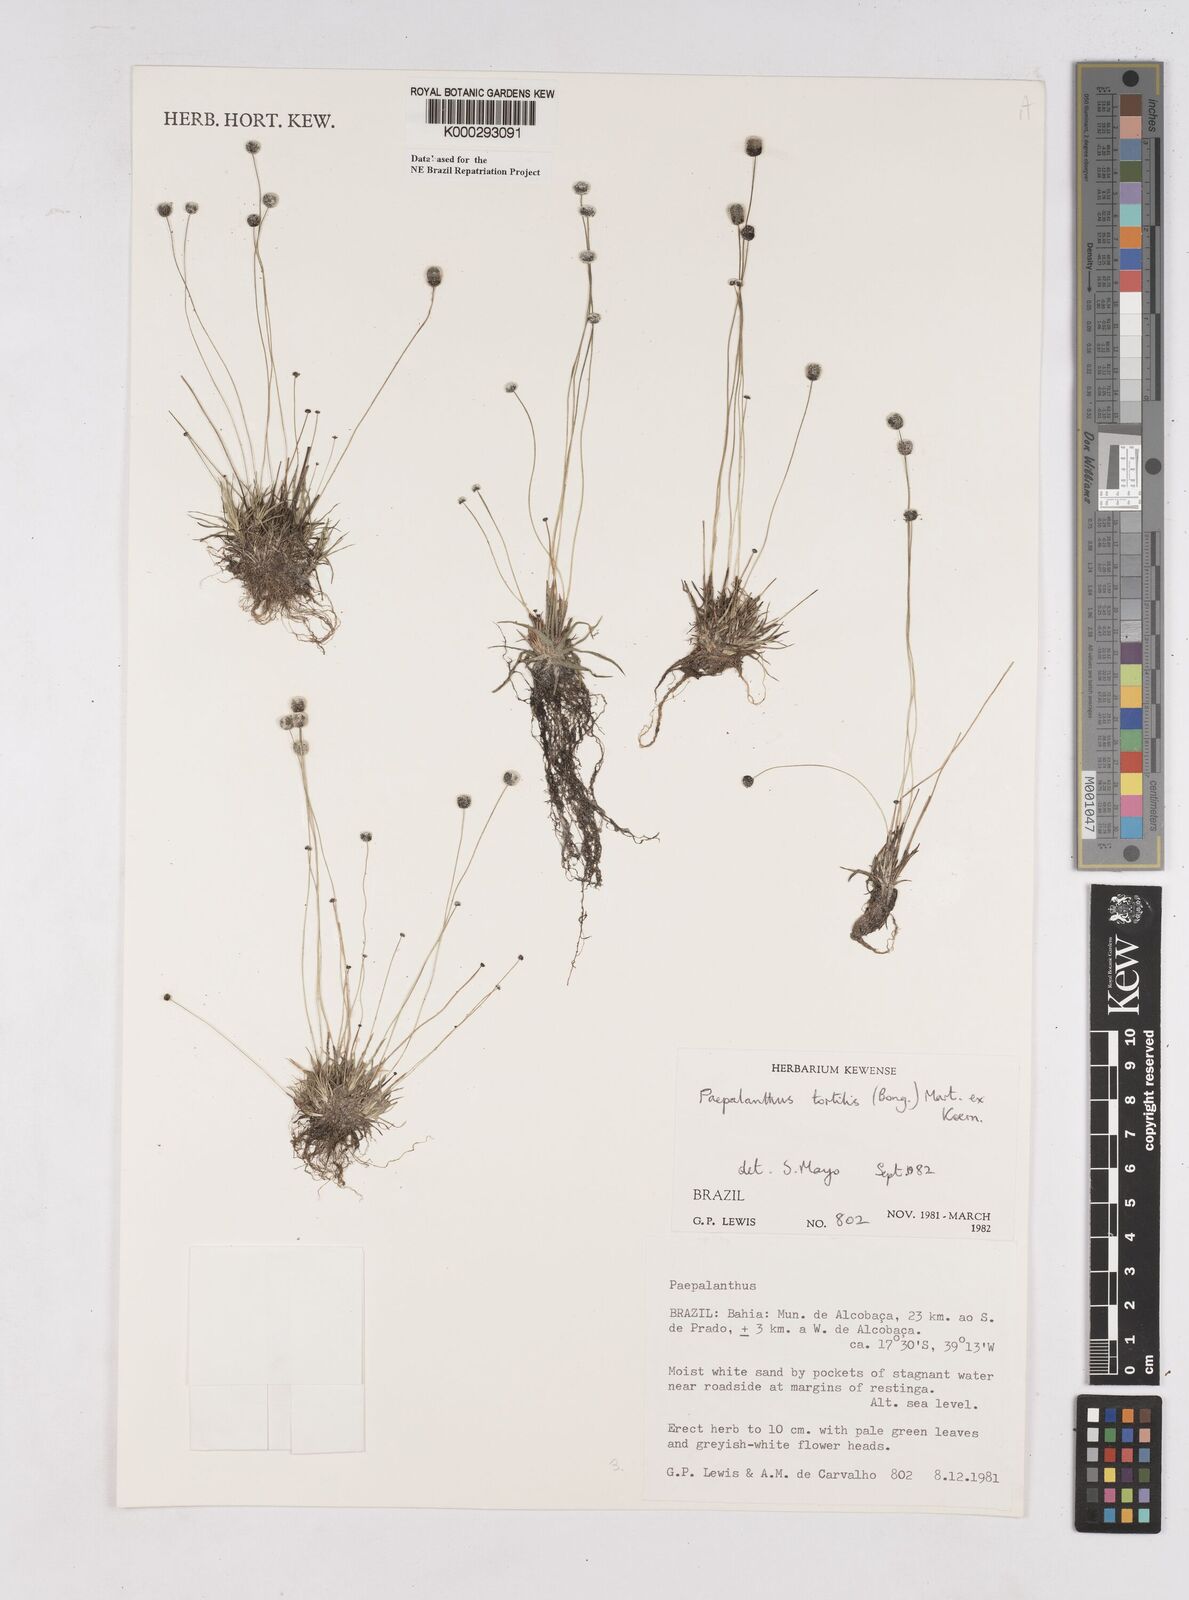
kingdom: Plantae
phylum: Tracheophyta
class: Liliopsida
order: Poales
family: Eriocaulaceae
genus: Paepalanthus
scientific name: Paepalanthus
